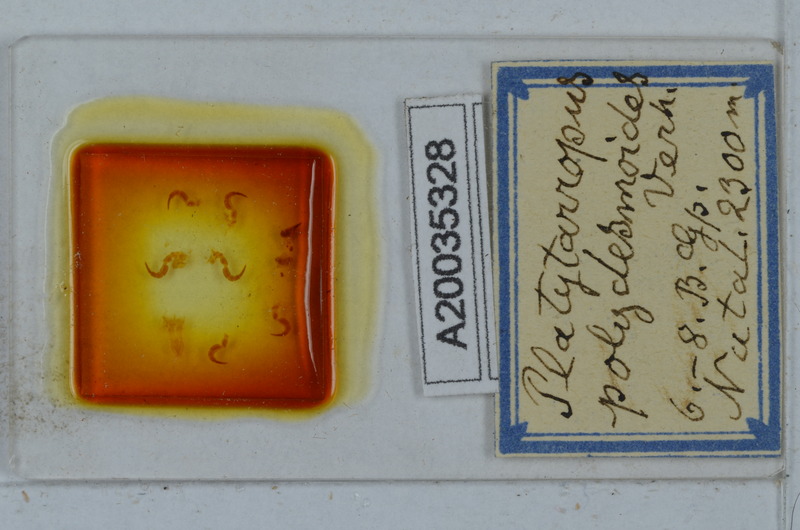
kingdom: Animalia
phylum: Arthropoda
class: Diplopoda
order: Polydesmida
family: Dalodesmidae
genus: Platytarropus
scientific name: Platytarropus polydesmoides
